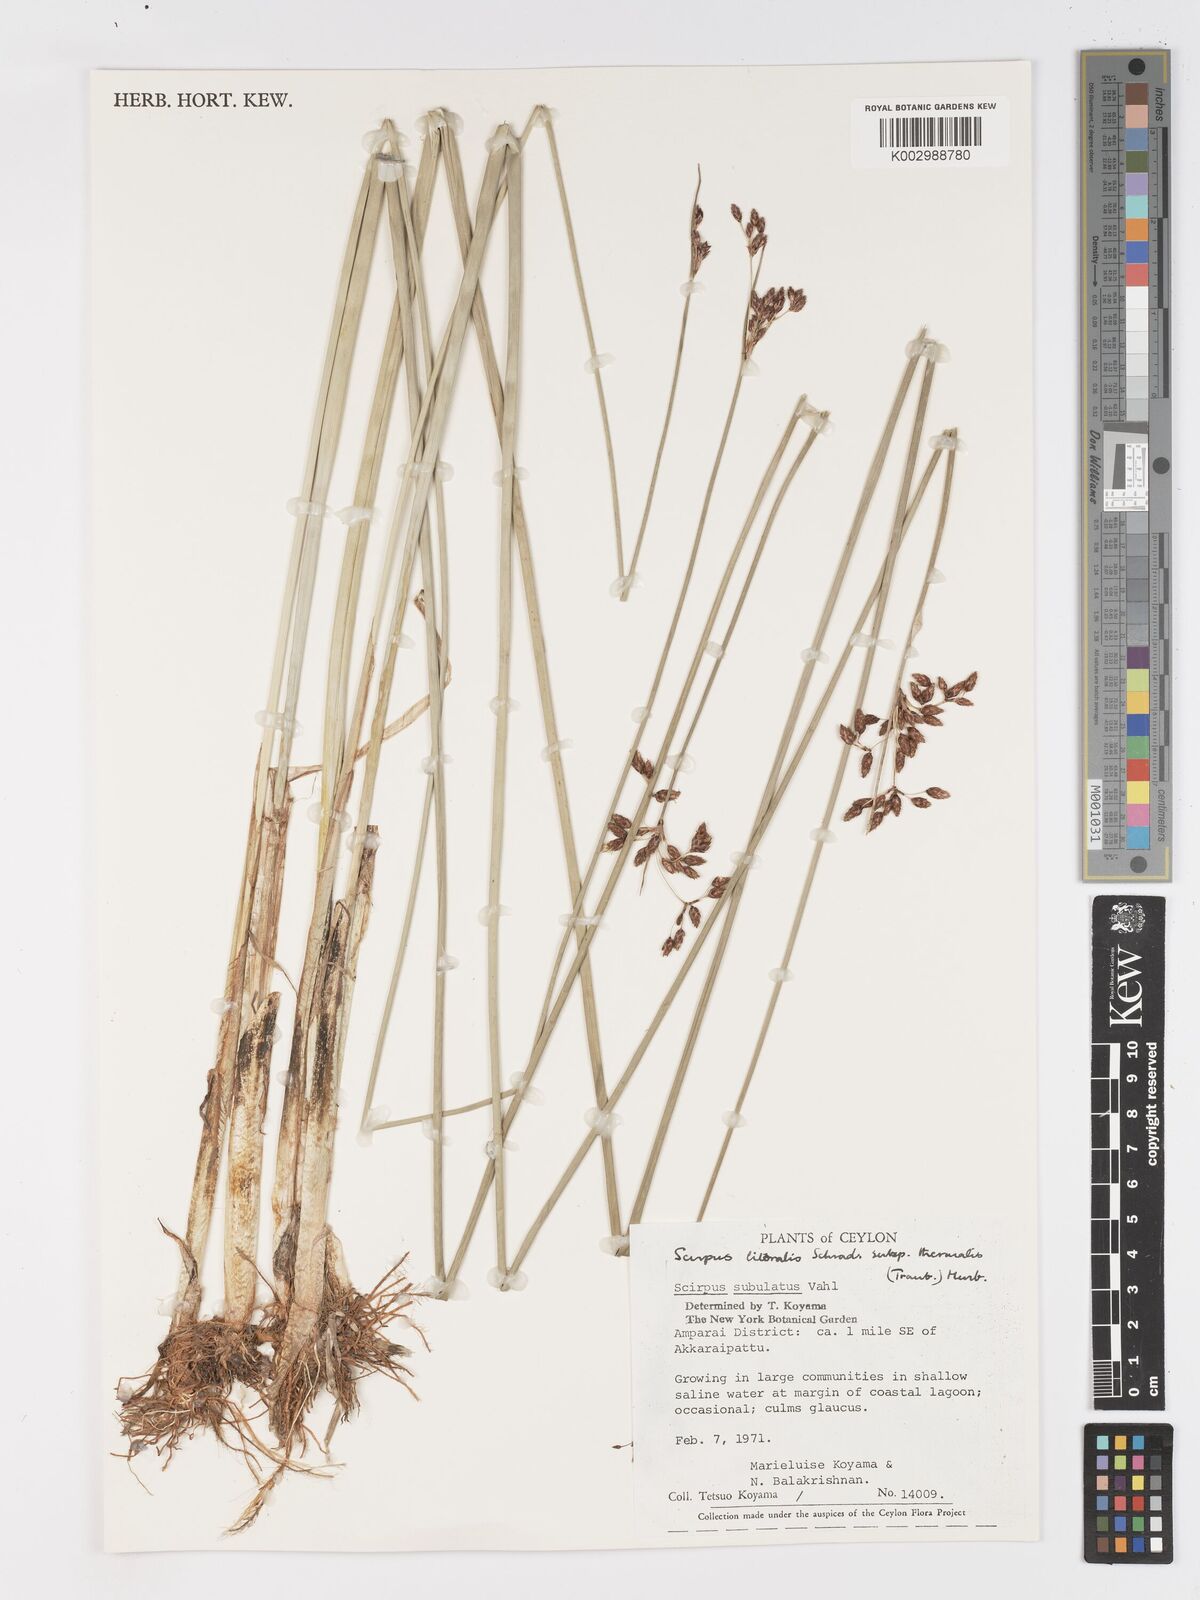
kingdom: Plantae
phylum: Tracheophyta
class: Liliopsida
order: Poales
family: Cyperaceae
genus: Schoenoplectus
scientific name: Schoenoplectus litoralis
